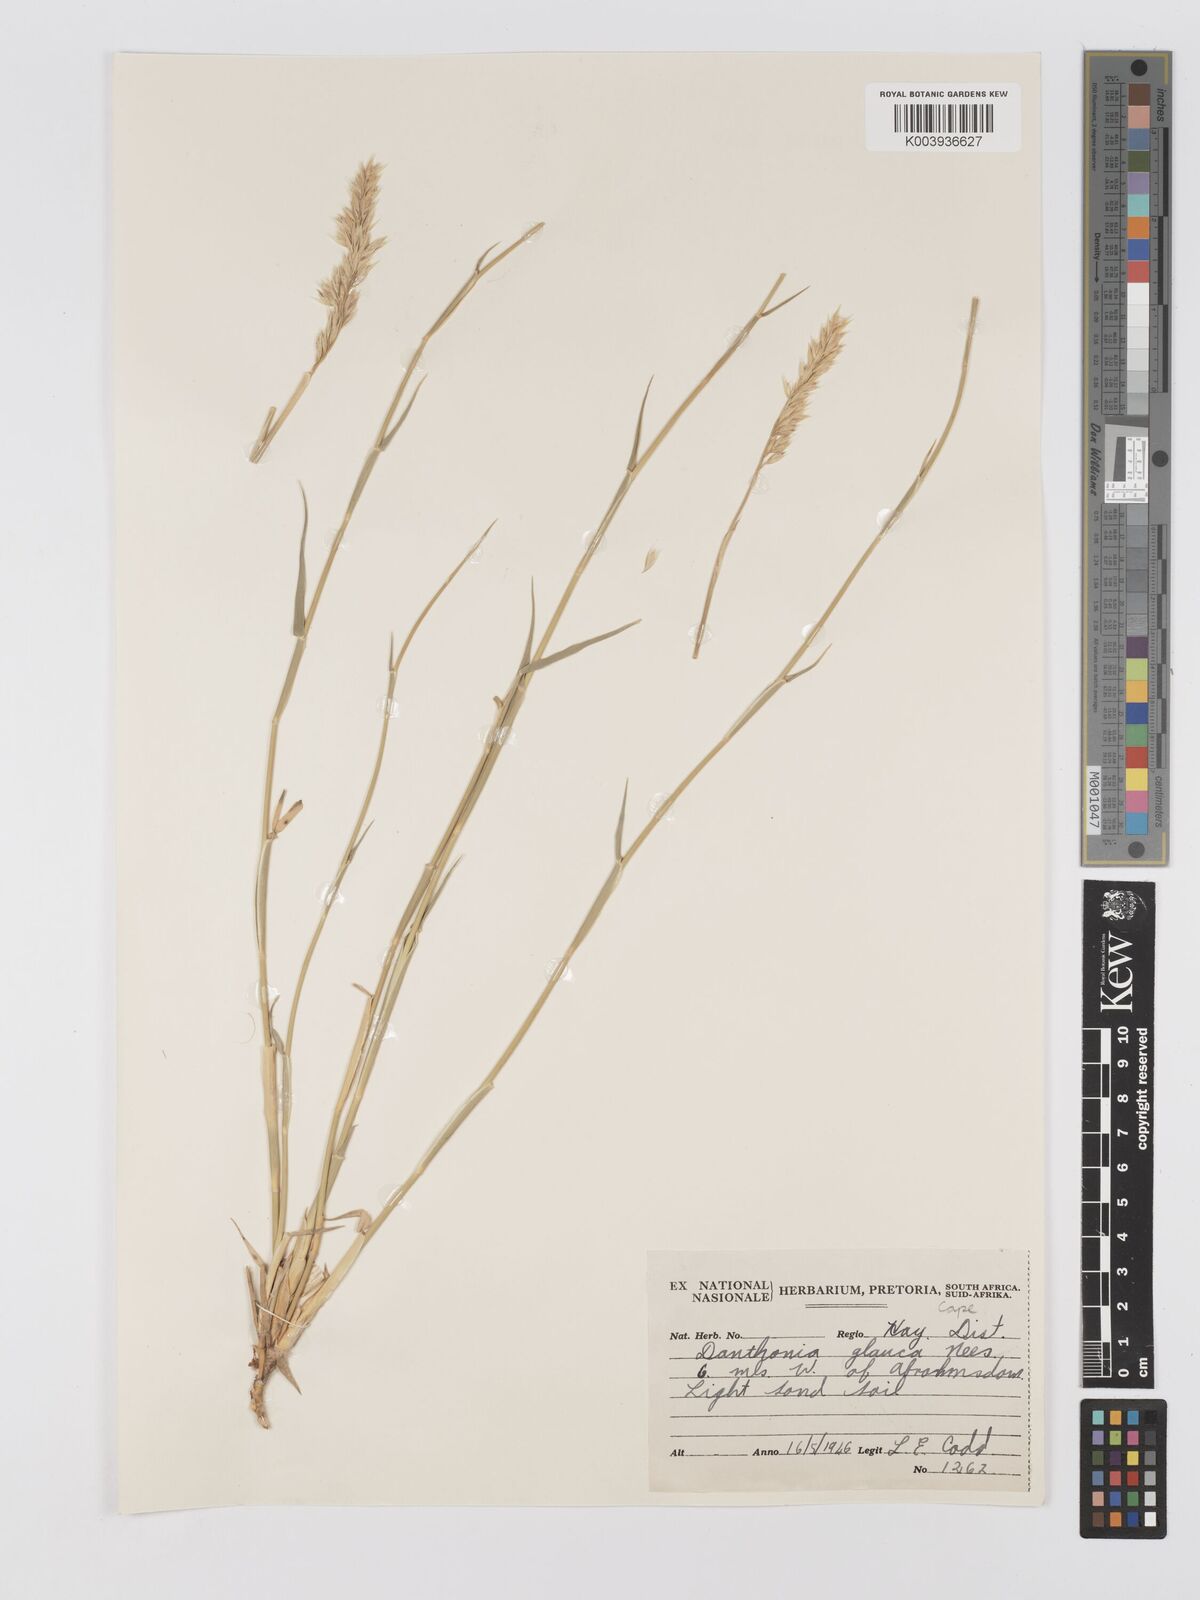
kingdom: Plantae
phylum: Tracheophyta
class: Liliopsida
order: Poales
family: Poaceae
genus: Centropodia
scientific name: Centropodia glauca
